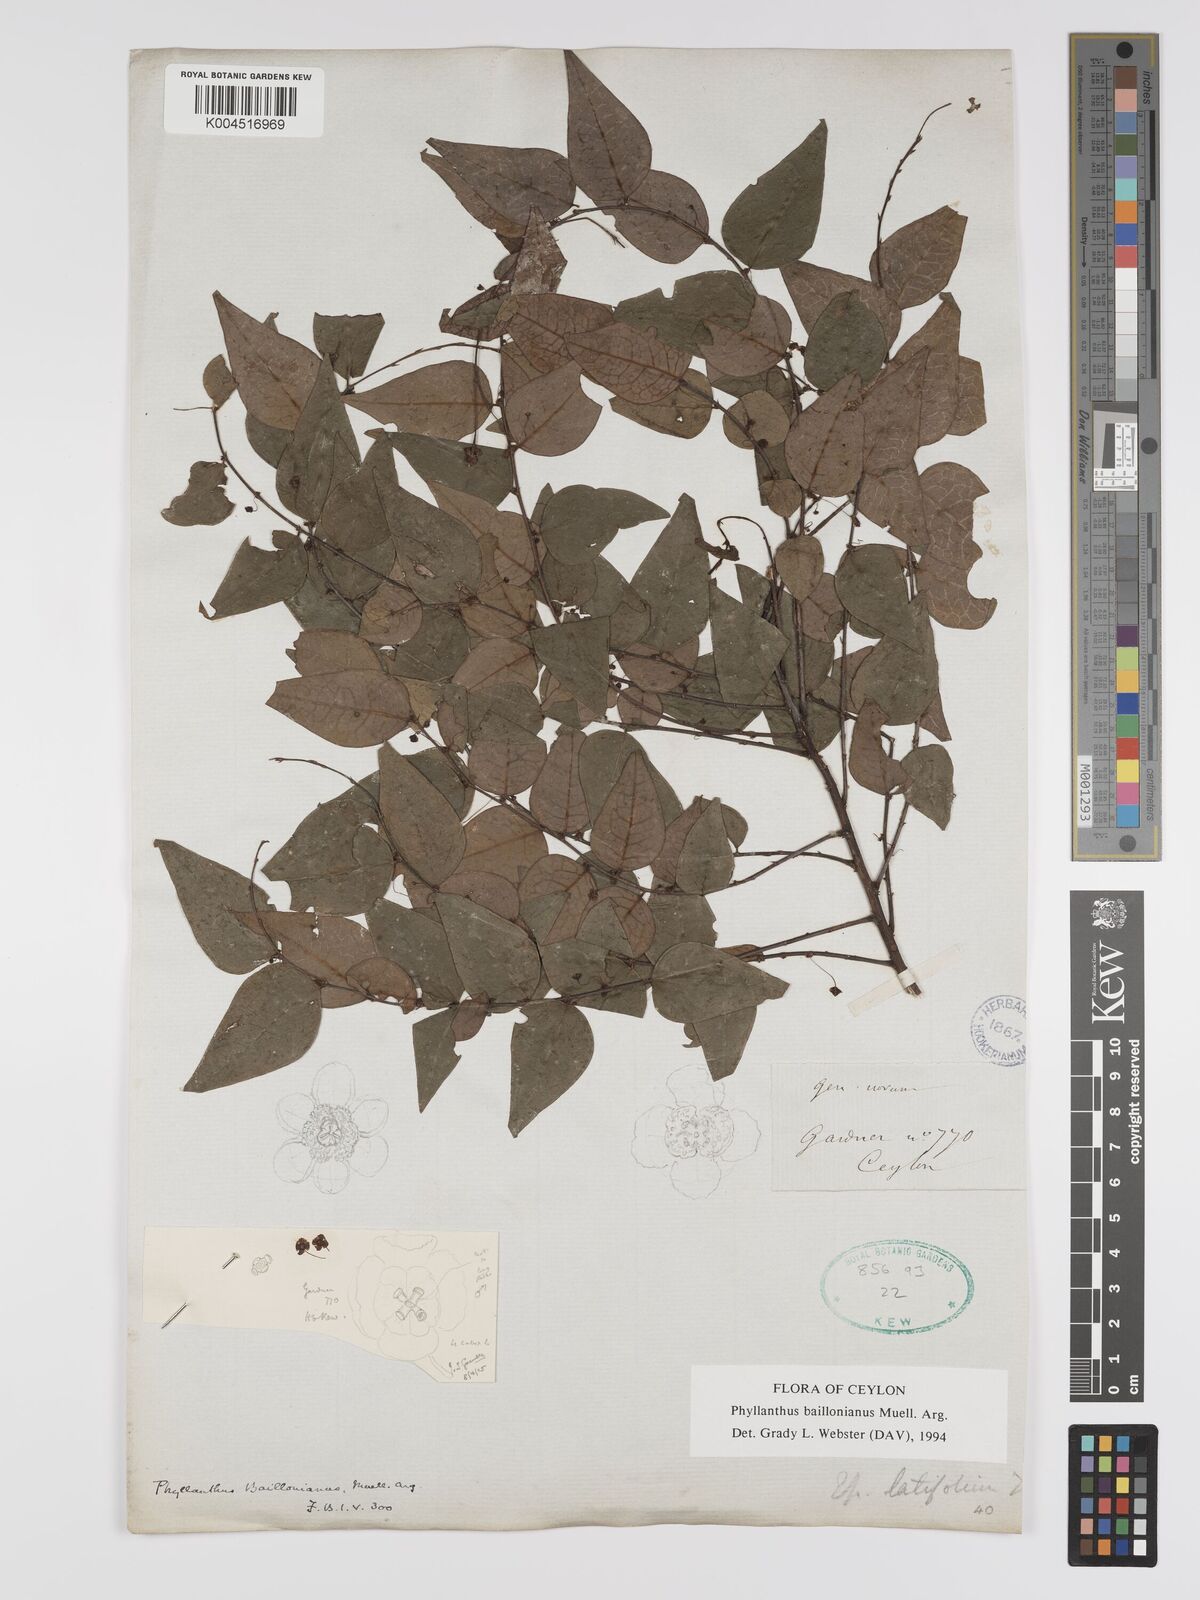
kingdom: Plantae
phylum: Tracheophyta
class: Magnoliopsida
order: Malpighiales
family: Phyllanthaceae
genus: Phyllanthus
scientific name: Phyllanthus baillonianus
